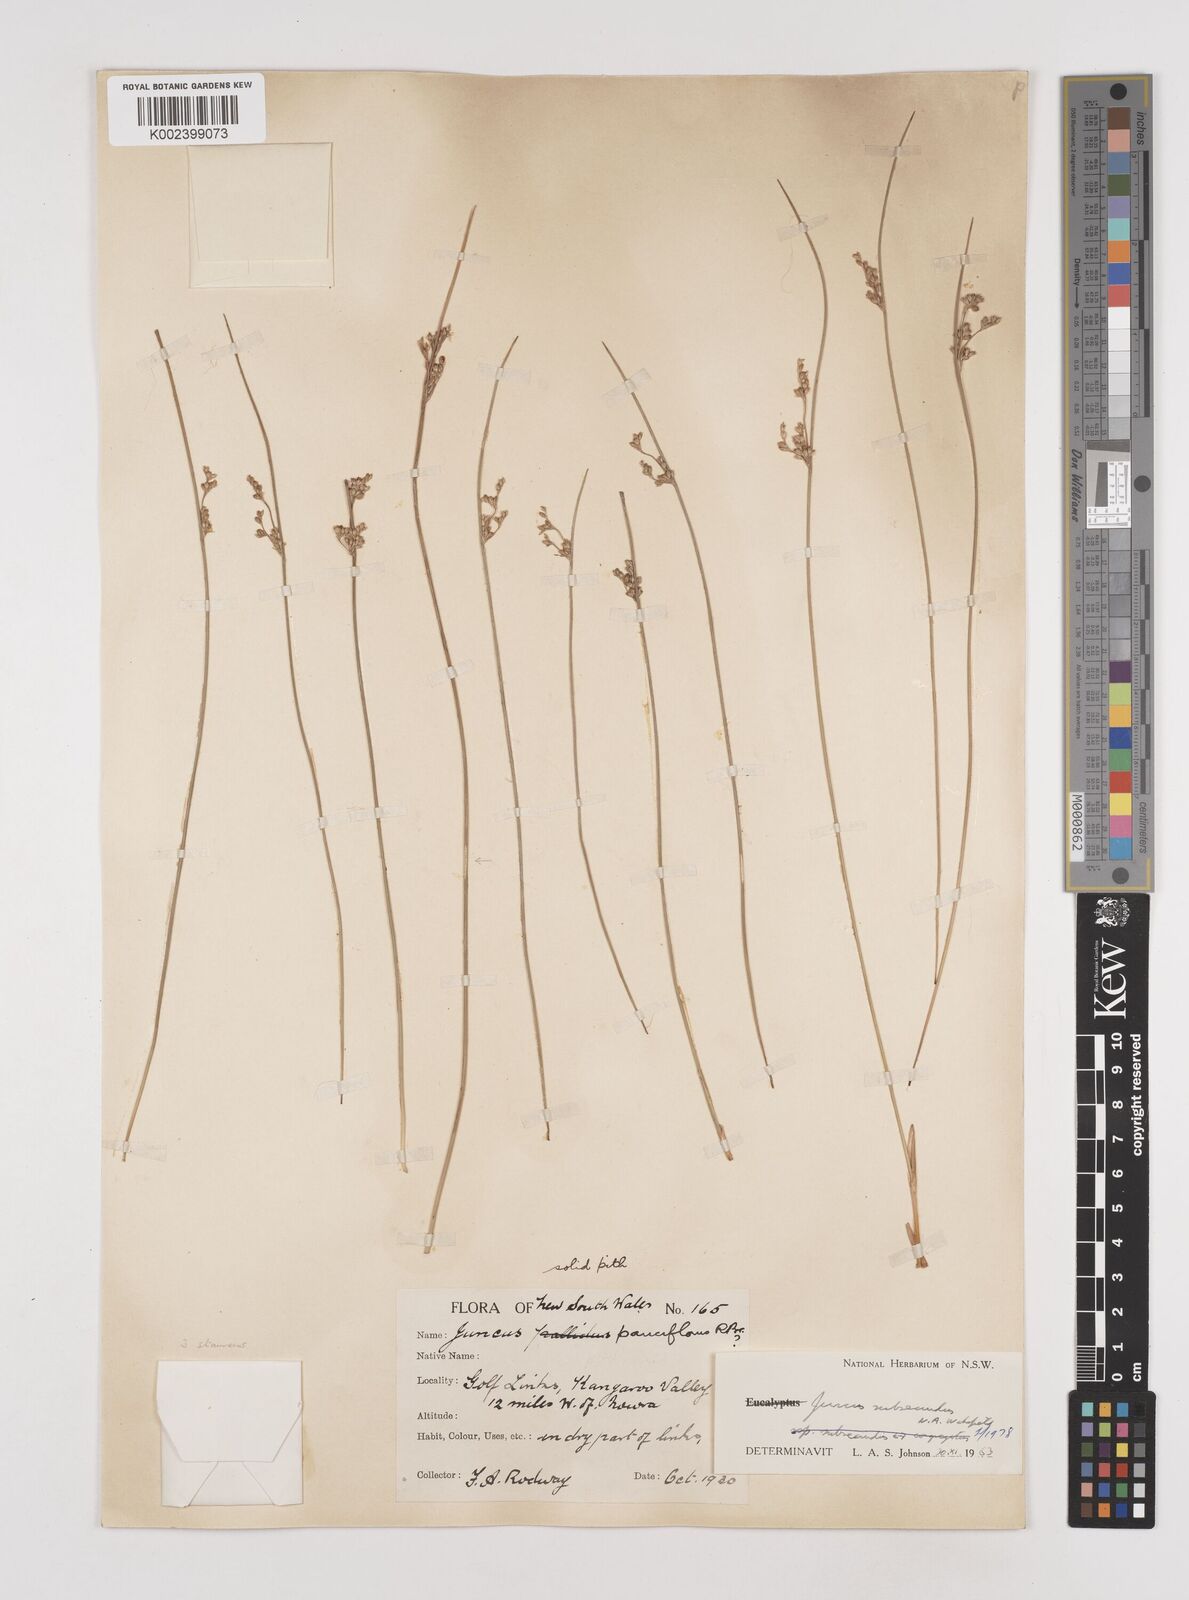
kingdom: Plantae
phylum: Tracheophyta
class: Liliopsida
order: Poales
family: Juncaceae
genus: Juncus
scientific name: Juncus subsecundus
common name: Fingered rush
